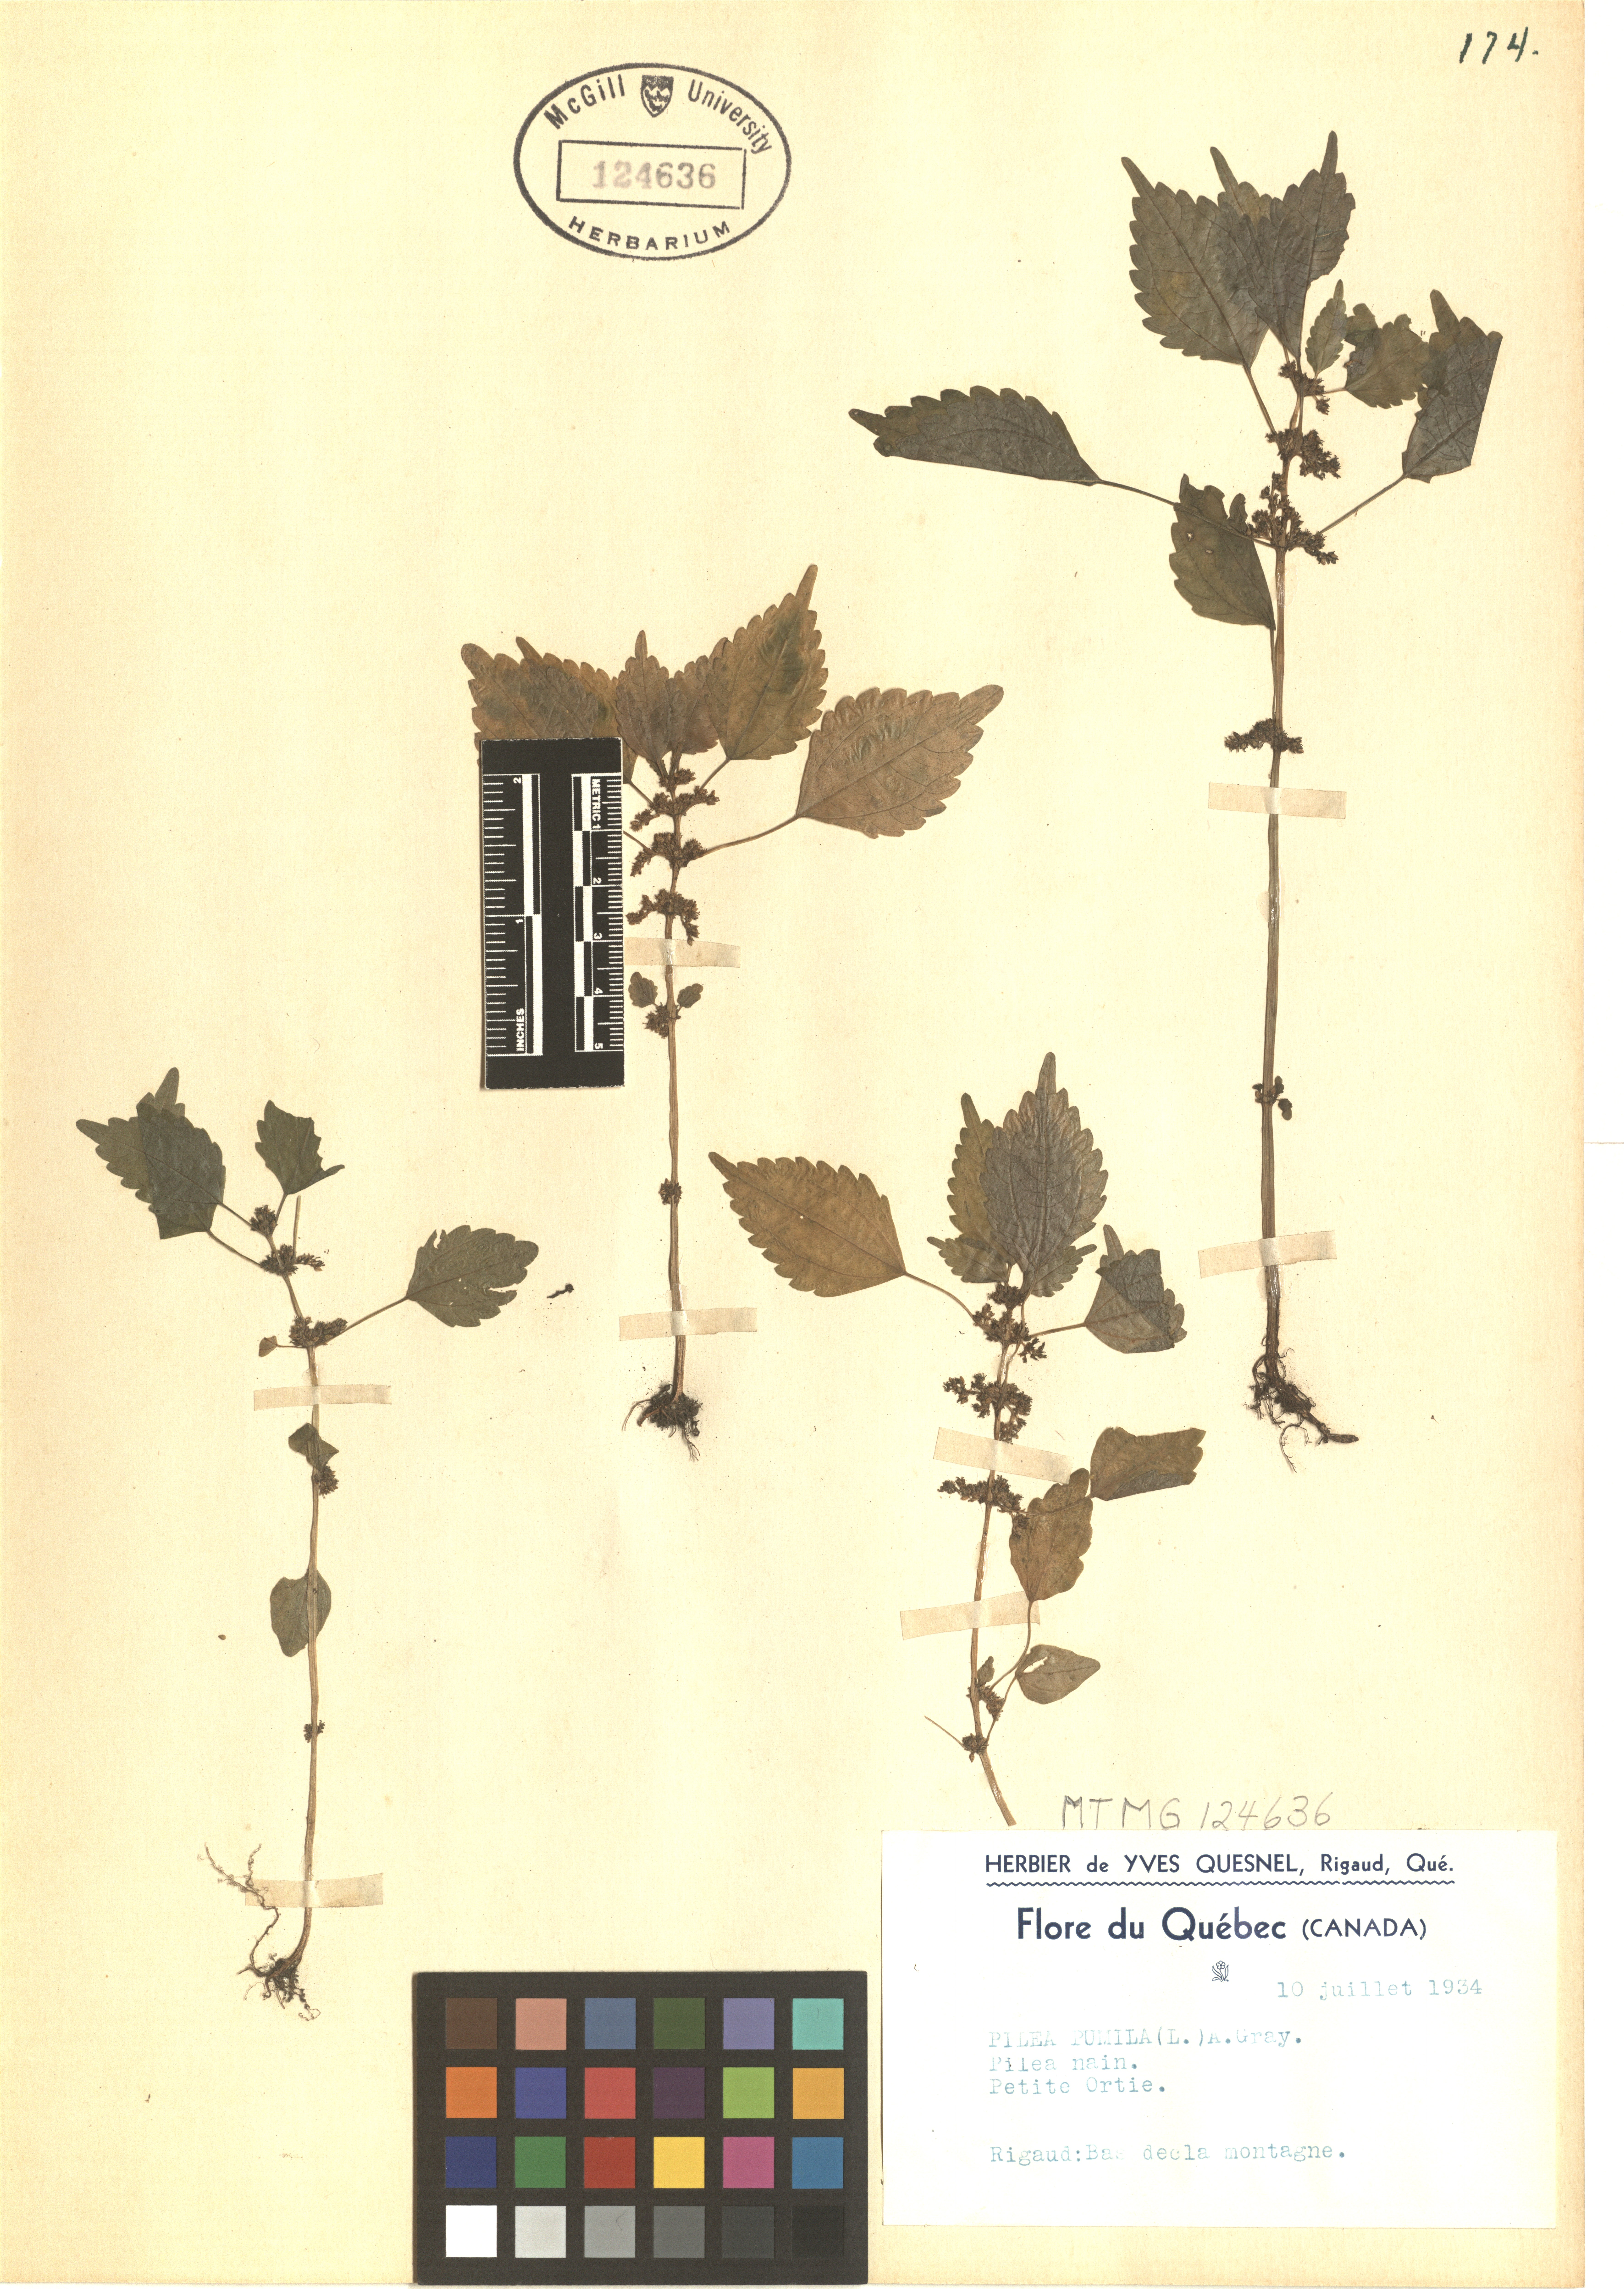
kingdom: Plantae
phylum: Tracheophyta
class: Magnoliopsida
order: Rosales
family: Urticaceae
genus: Pilea
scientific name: Pilea pumila
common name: Clearweed
